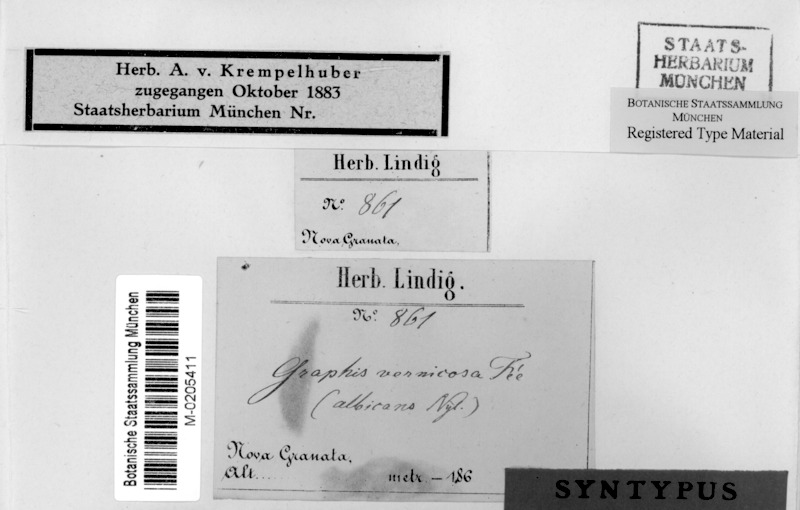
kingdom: Fungi
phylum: Ascomycota
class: Lecanoromycetes
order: Ostropales
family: Graphidaceae
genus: Allographa
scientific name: Allographa acharii
